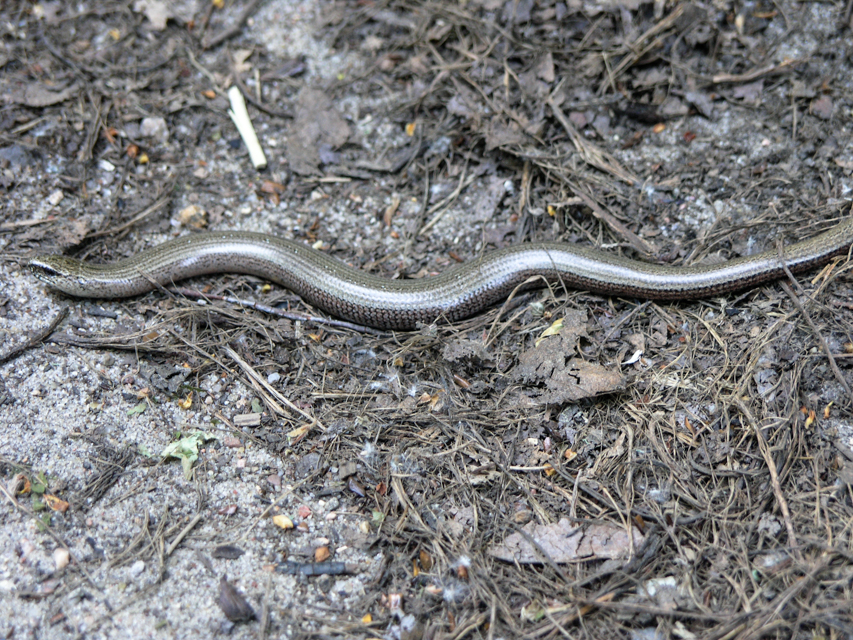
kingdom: Animalia
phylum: Chordata
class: Squamata
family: Anguidae
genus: Anguis
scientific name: Anguis fragilis
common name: Slow worm
